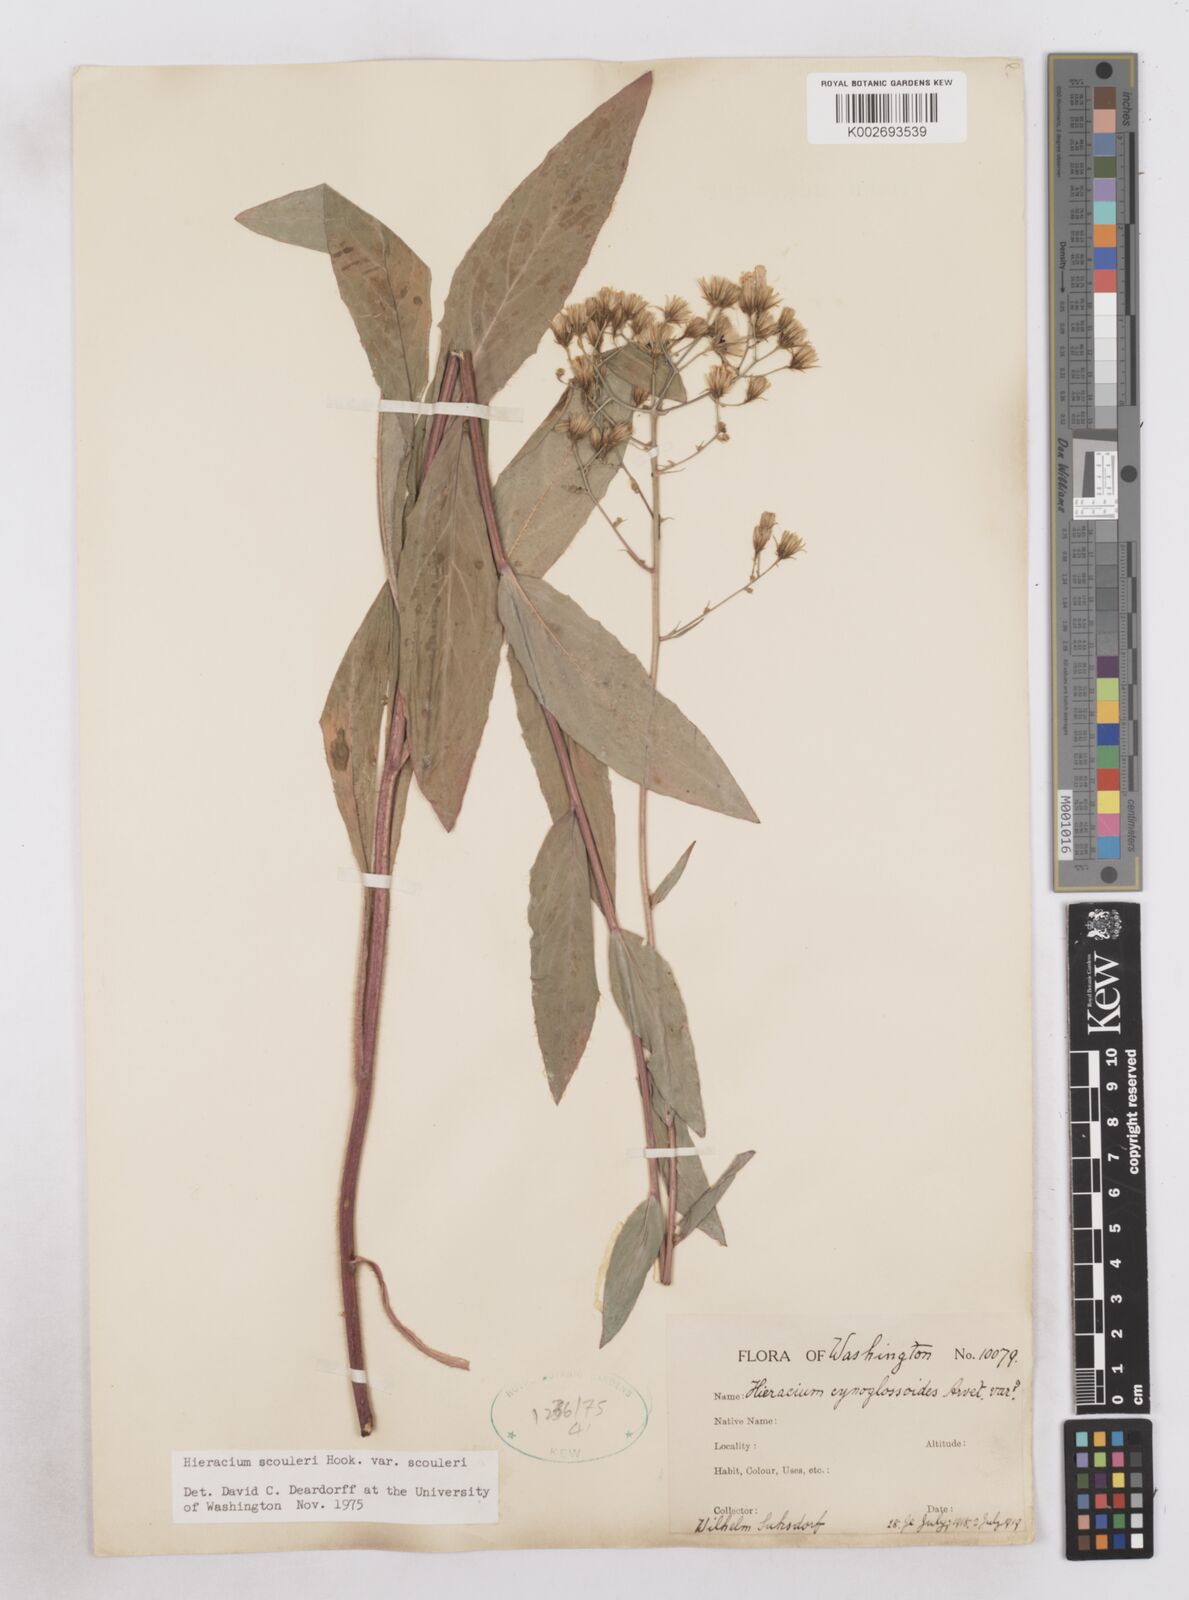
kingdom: Plantae
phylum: Tracheophyta
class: Magnoliopsida
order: Asterales
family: Asteraceae
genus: Hieracium
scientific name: Hieracium scouleri
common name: Hound's-tongue hawkweed
